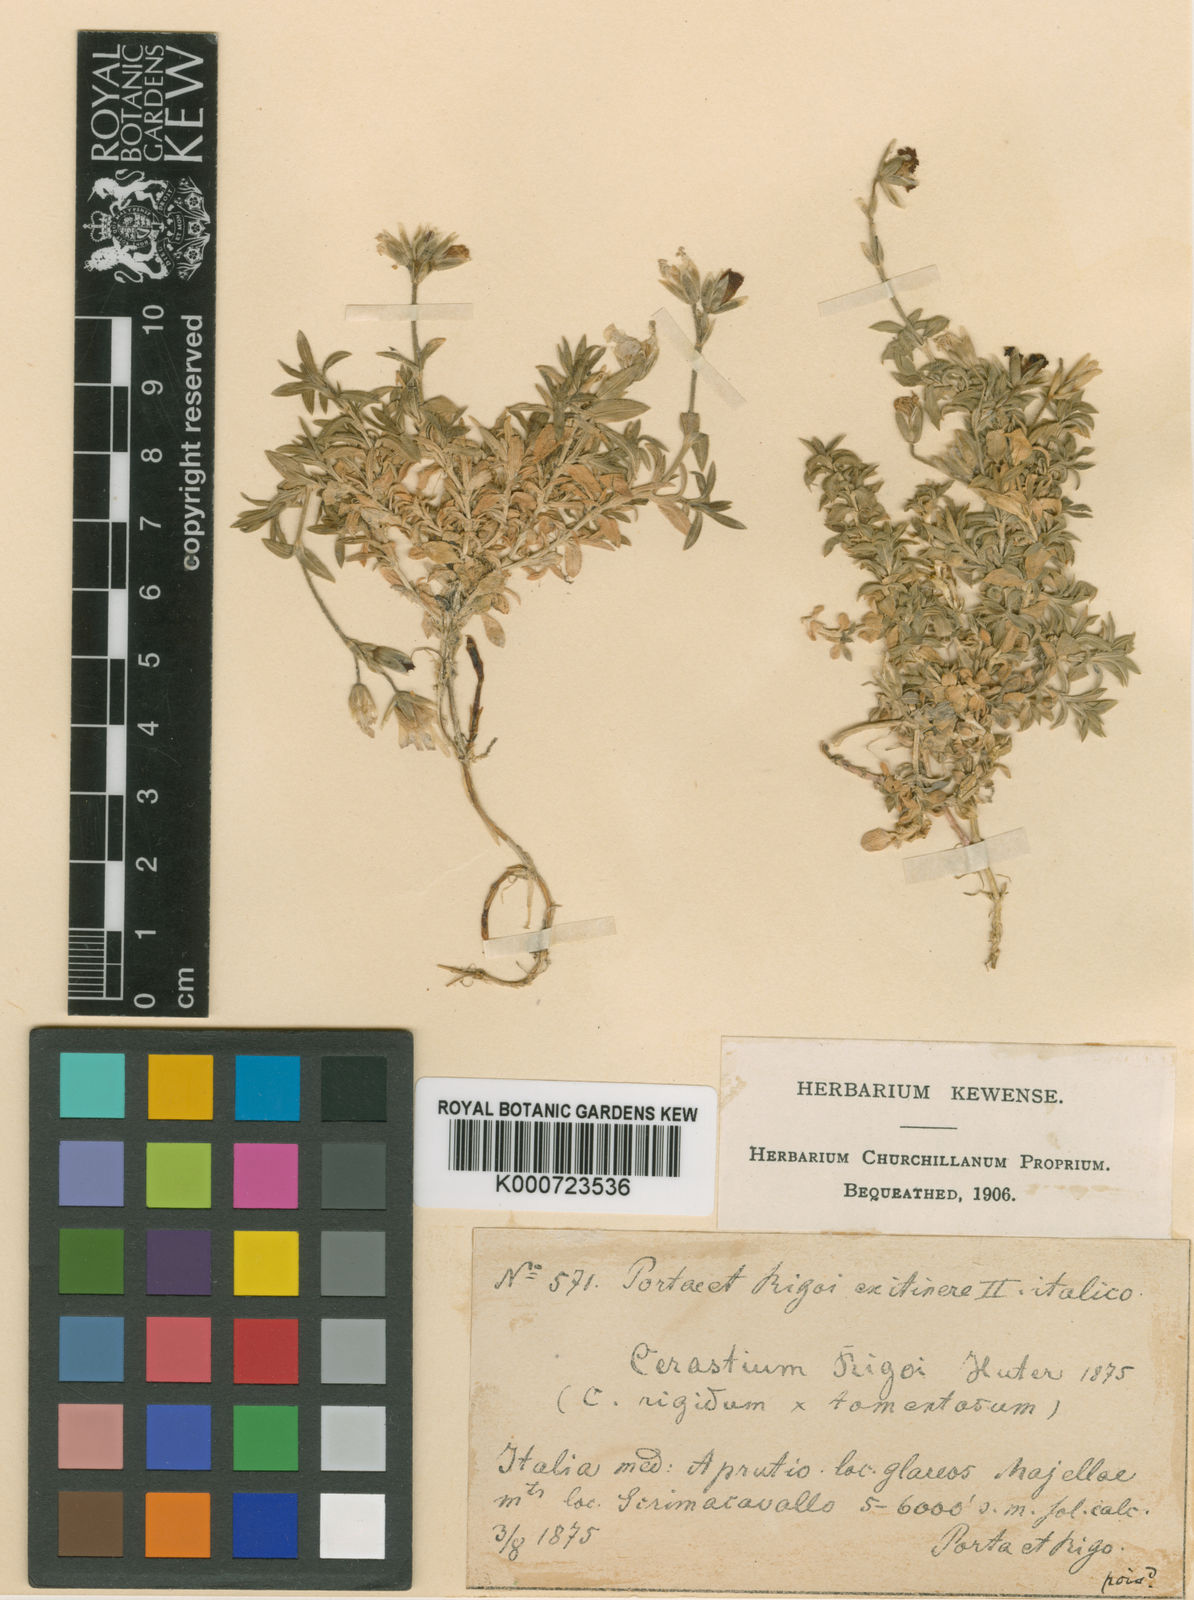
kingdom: Plantae
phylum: Tracheophyta
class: Magnoliopsida
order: Caryophyllales
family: Caryophyllaceae
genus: Cerastium
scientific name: Cerastium rigoi
